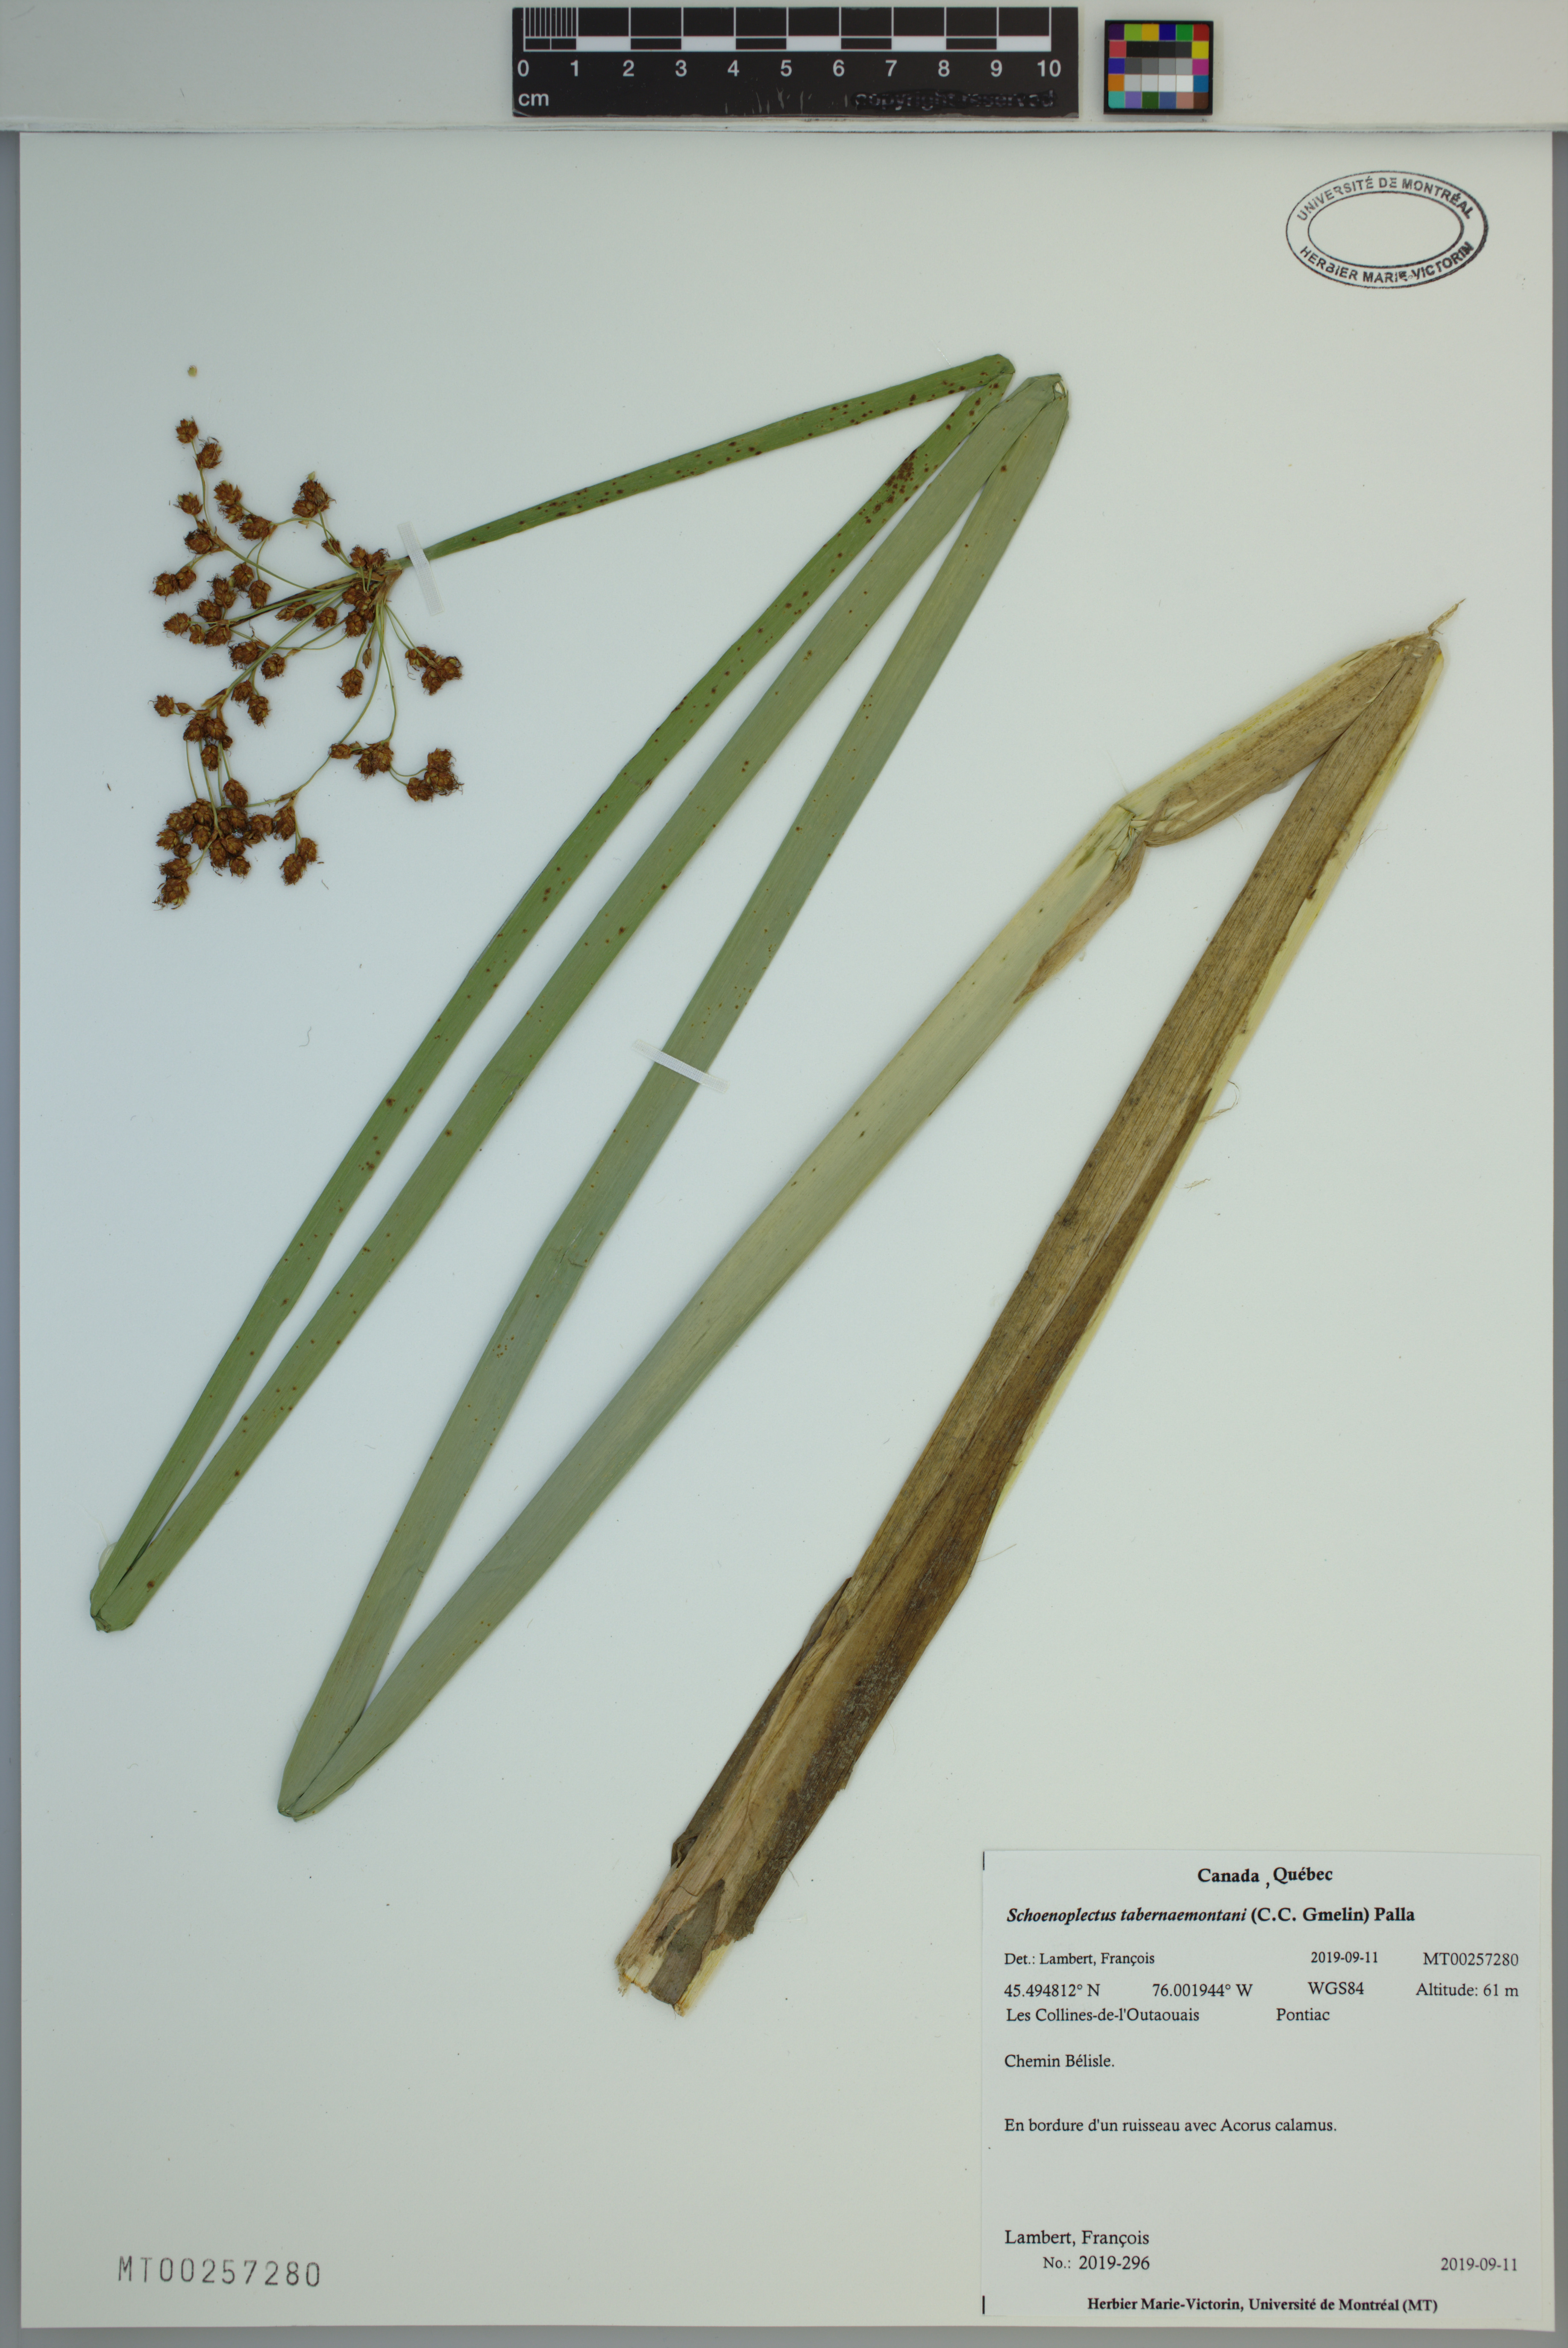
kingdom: Plantae
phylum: Tracheophyta
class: Liliopsida
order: Poales
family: Cyperaceae
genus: Schoenoplectus
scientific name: Schoenoplectus tabernaemontani
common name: Grey club-rush
